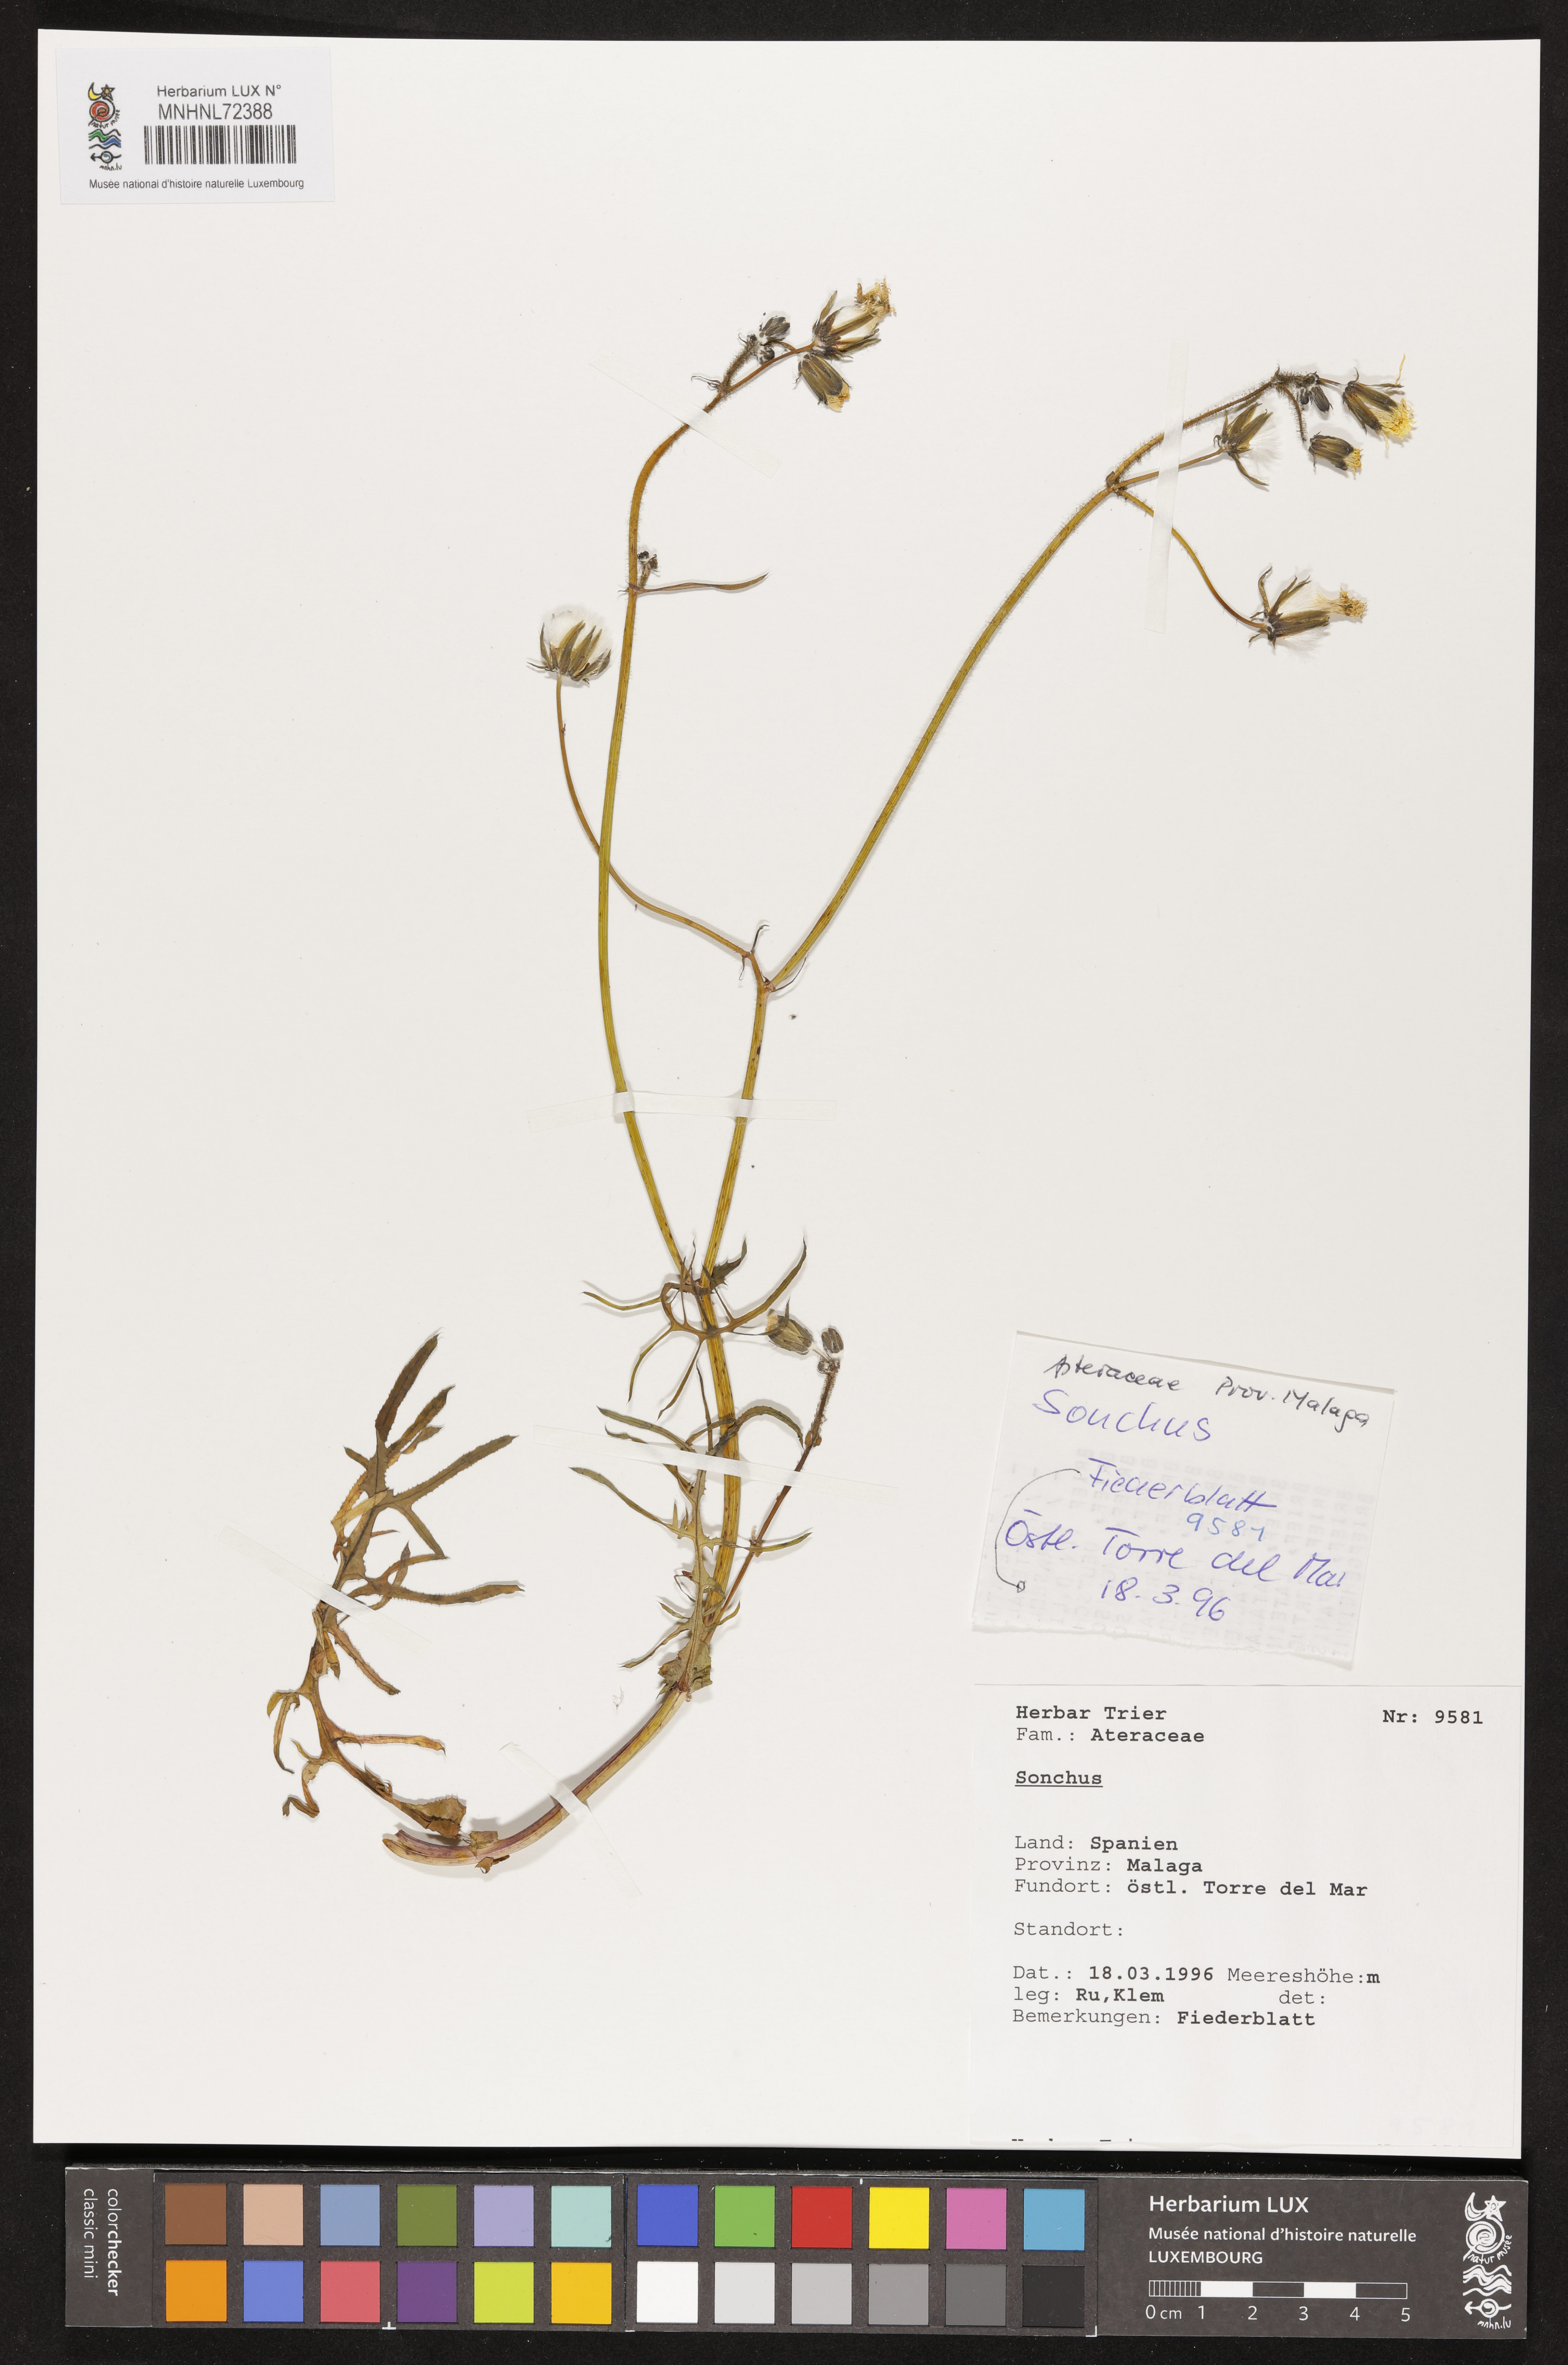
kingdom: Plantae
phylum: Tracheophyta
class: Magnoliopsida
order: Asterales
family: Asteraceae
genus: Sonchus
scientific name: Sonchus
